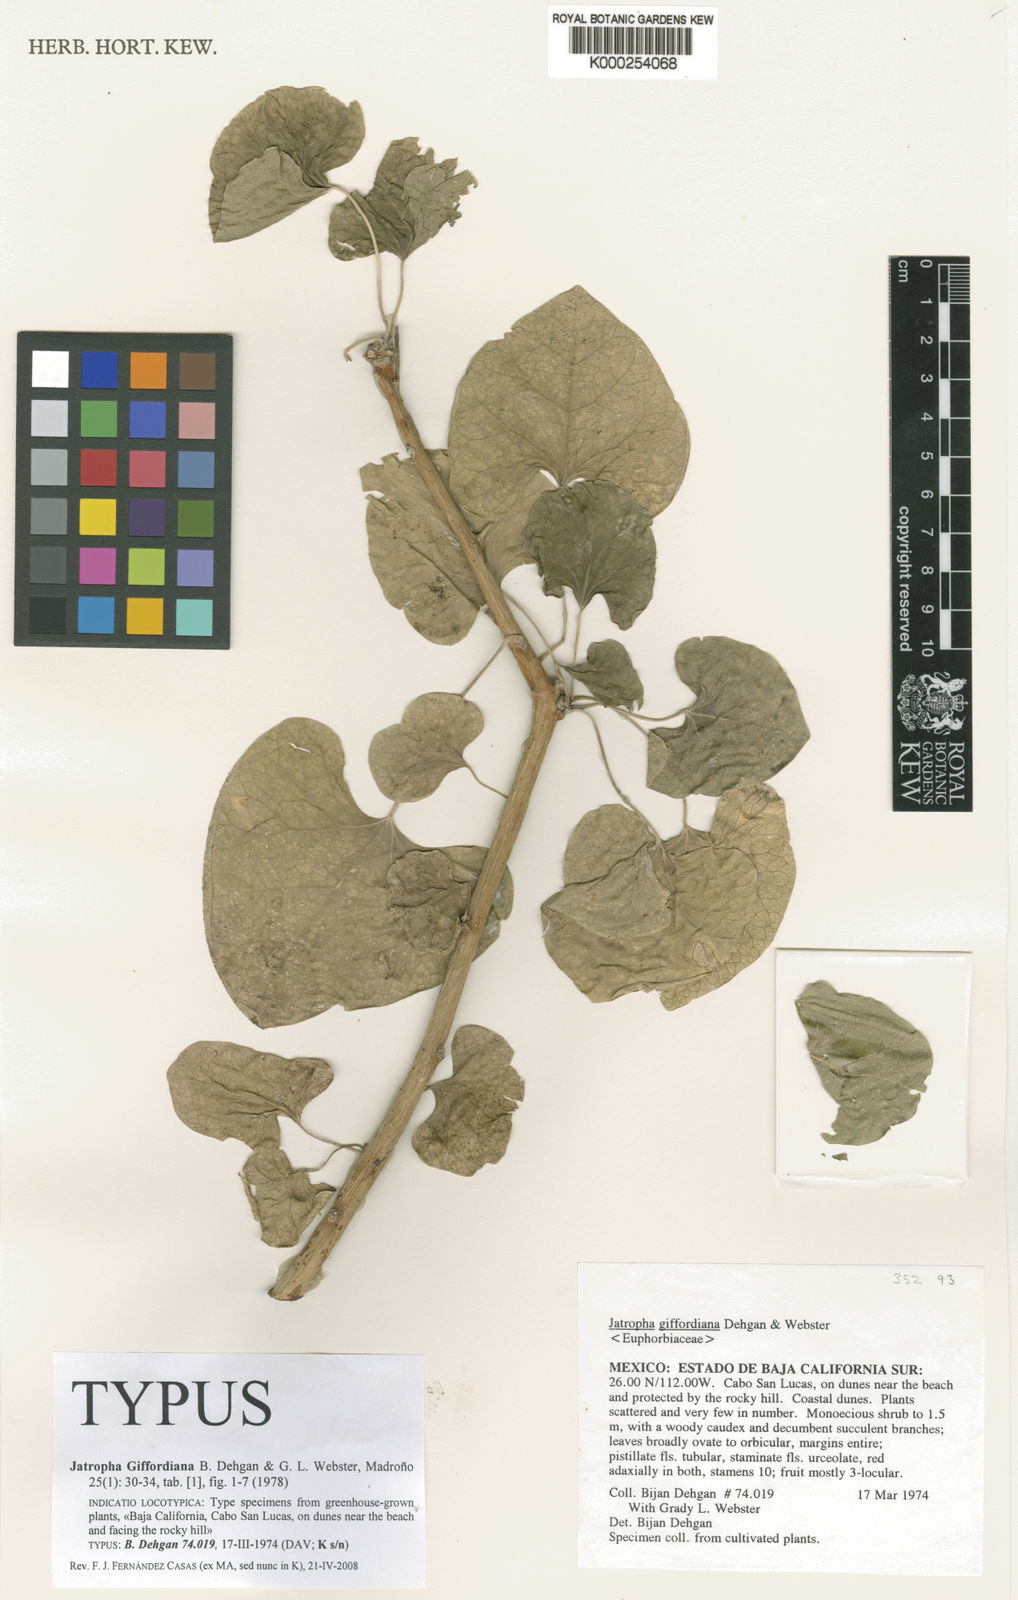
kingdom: Plantae
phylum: Tracheophyta
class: Magnoliopsida
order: Malpighiales
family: Euphorbiaceae
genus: Jatropha
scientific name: Jatropha giffordiana
